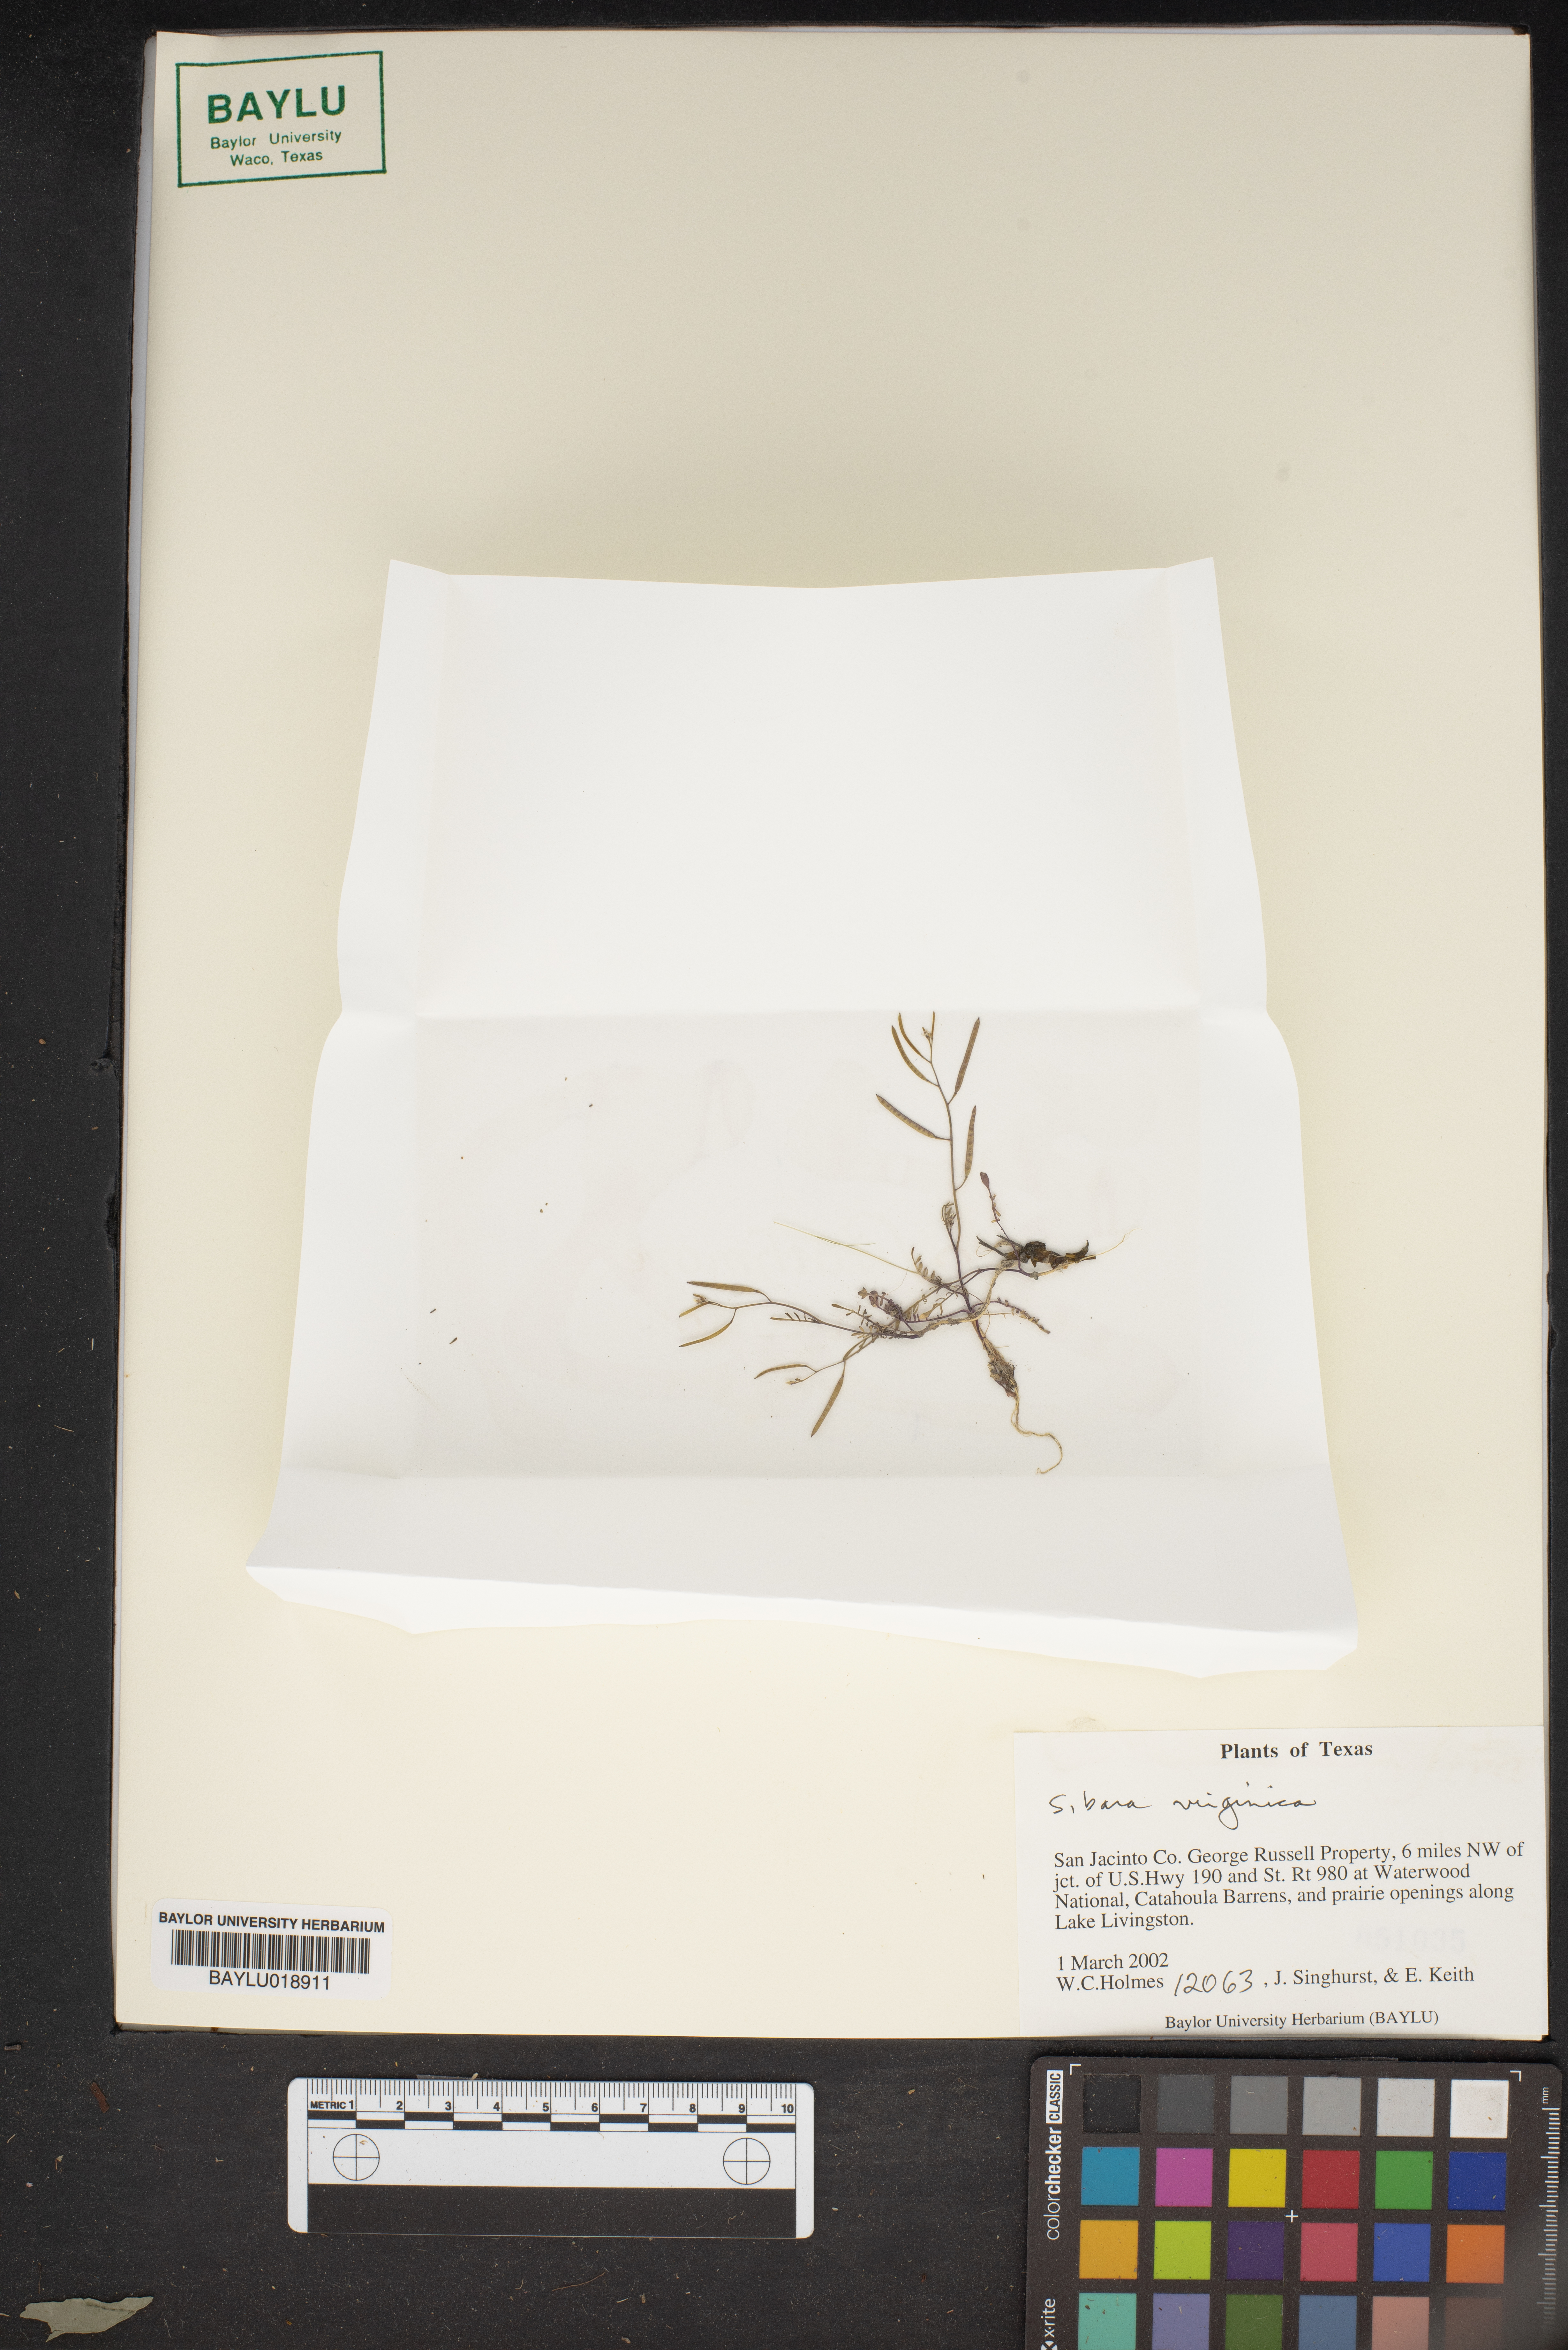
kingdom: Plantae
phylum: Tracheophyta
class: Magnoliopsida
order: Brassicales
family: Brassicaceae
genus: Planodes
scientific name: Planodes virginicum
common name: Virginia cress
